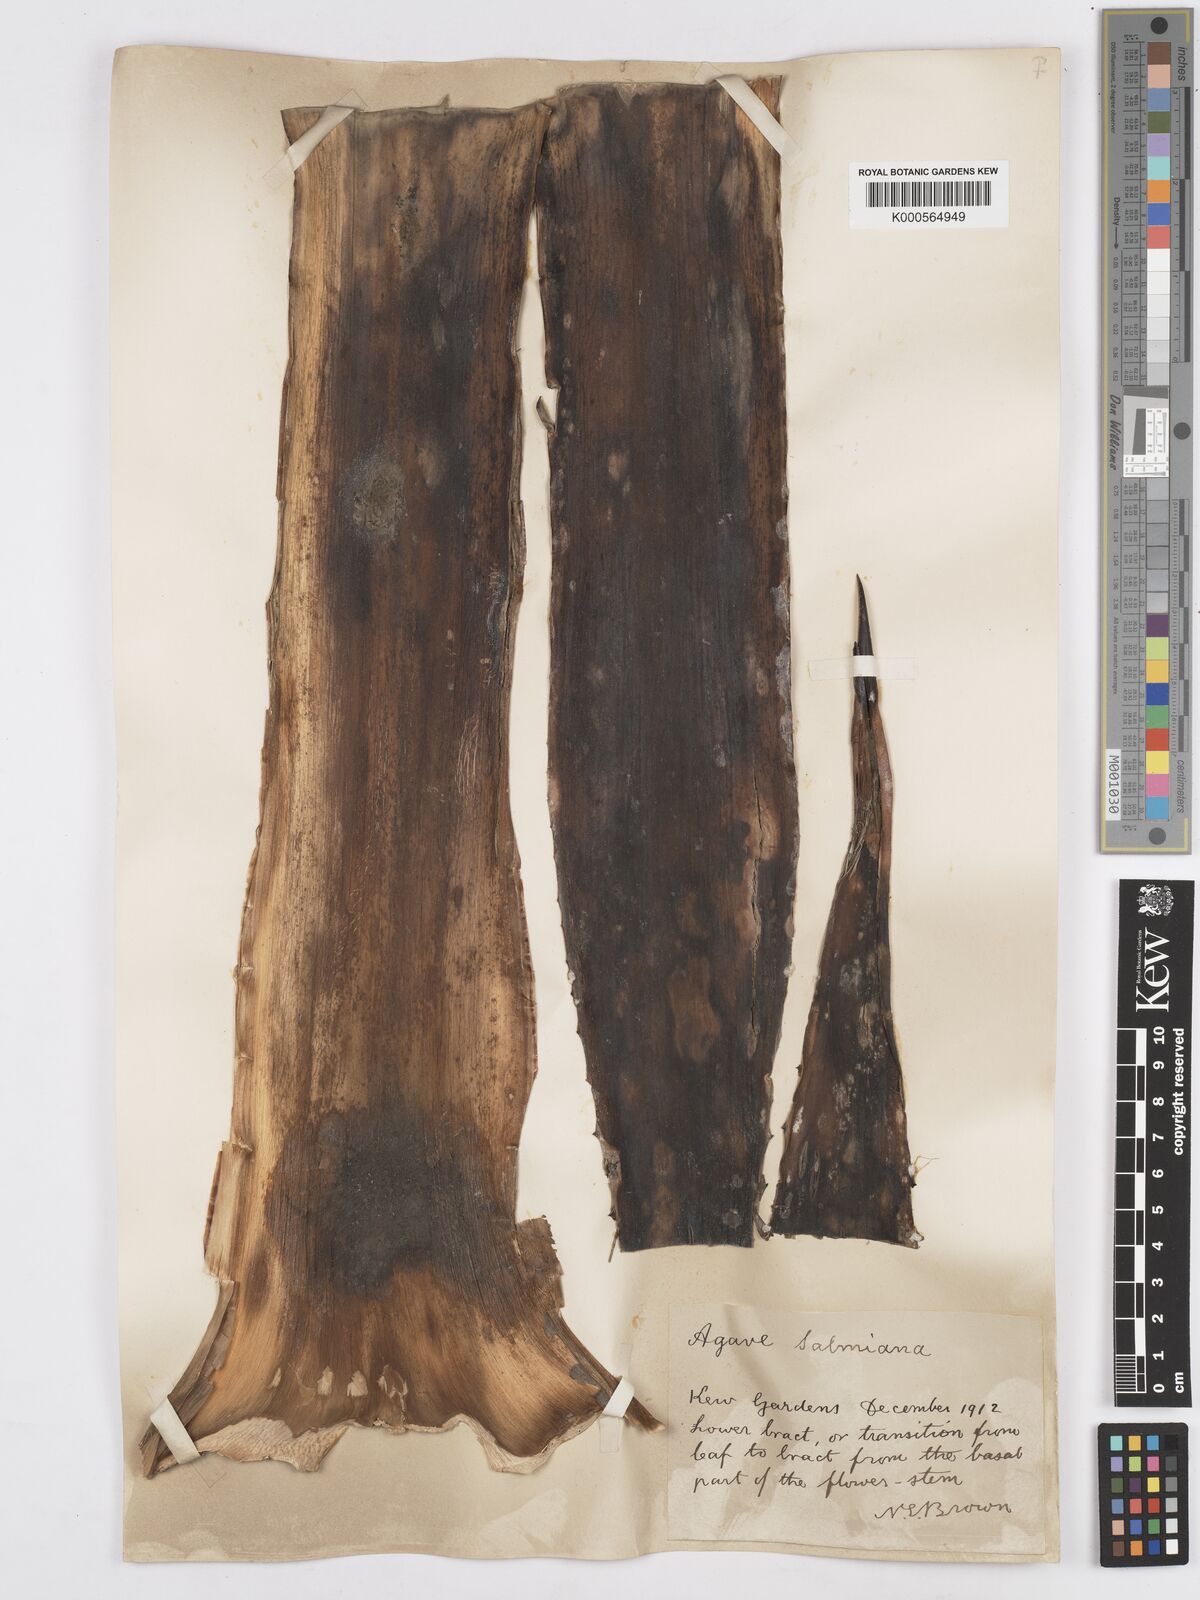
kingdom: Plantae
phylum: Tracheophyta
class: Liliopsida
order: Asparagales
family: Asparagaceae
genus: Agave
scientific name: Agave salmiana
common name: Pulque agave
